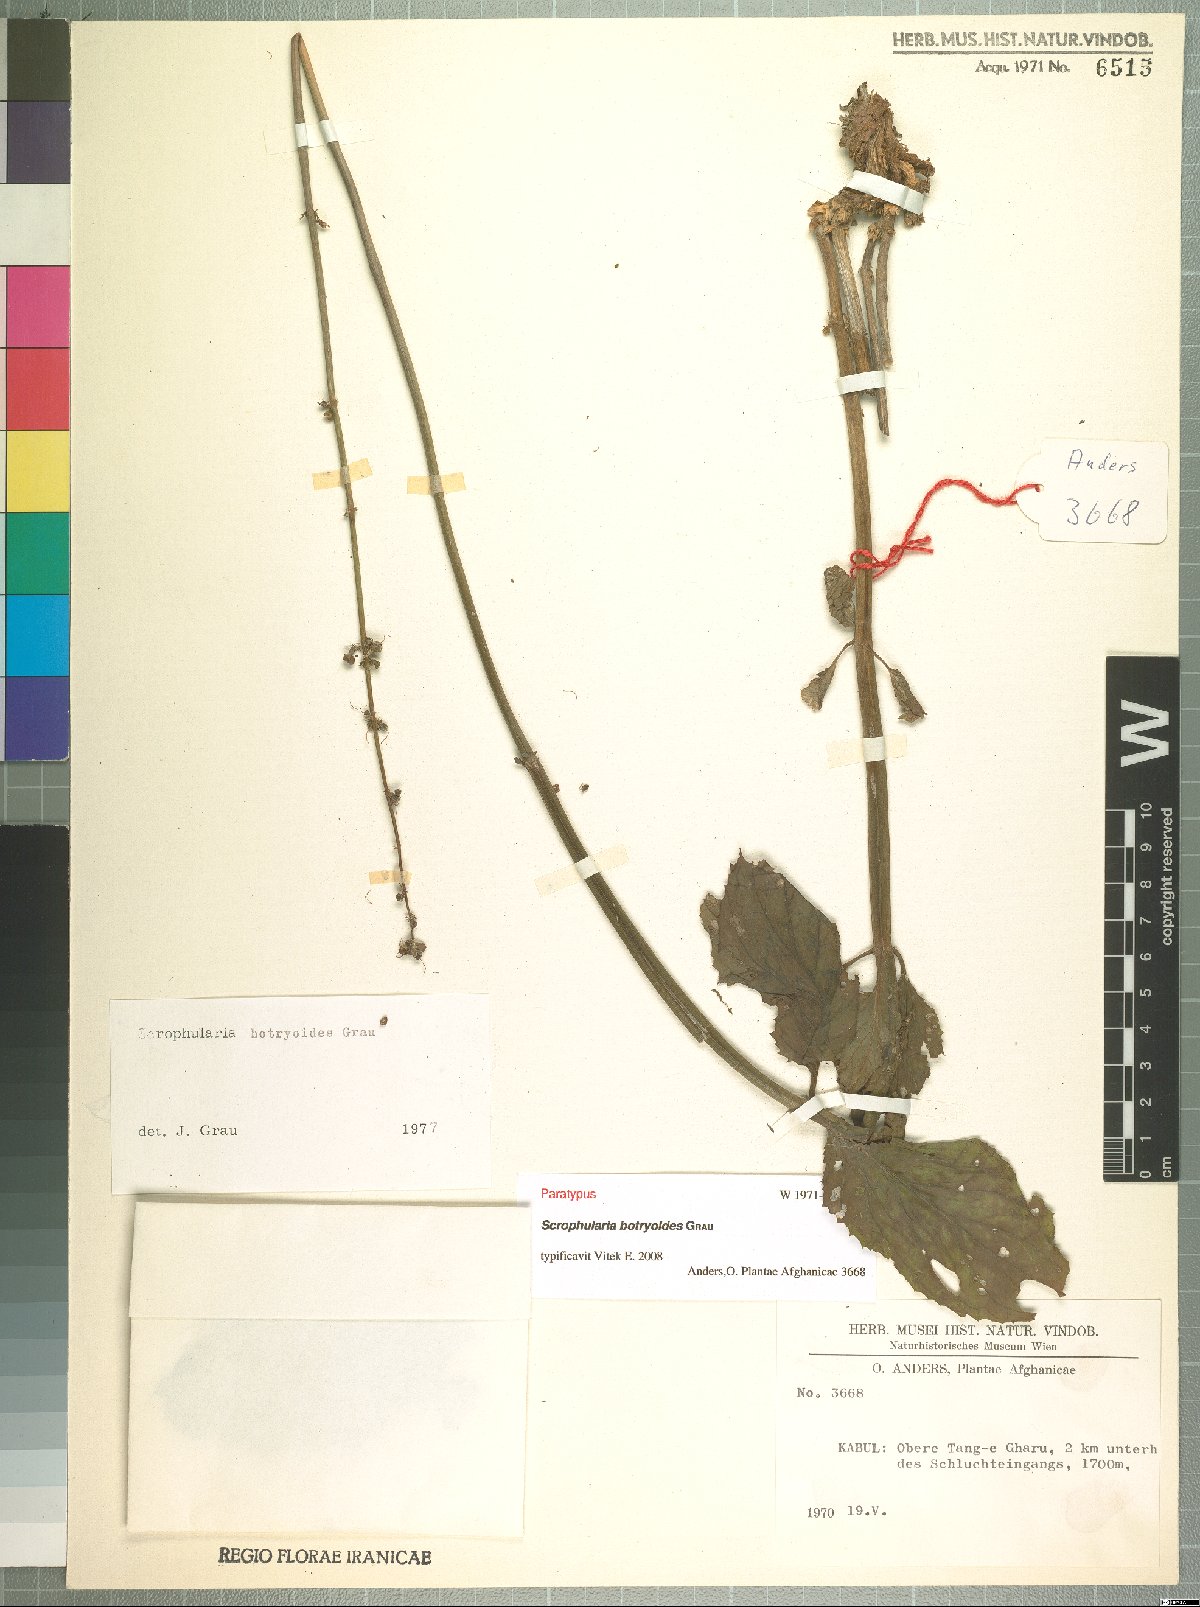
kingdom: Plantae
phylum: Tracheophyta
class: Magnoliopsida
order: Lamiales
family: Scrophulariaceae
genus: Scrophularia
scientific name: Scrophularia botryoides
